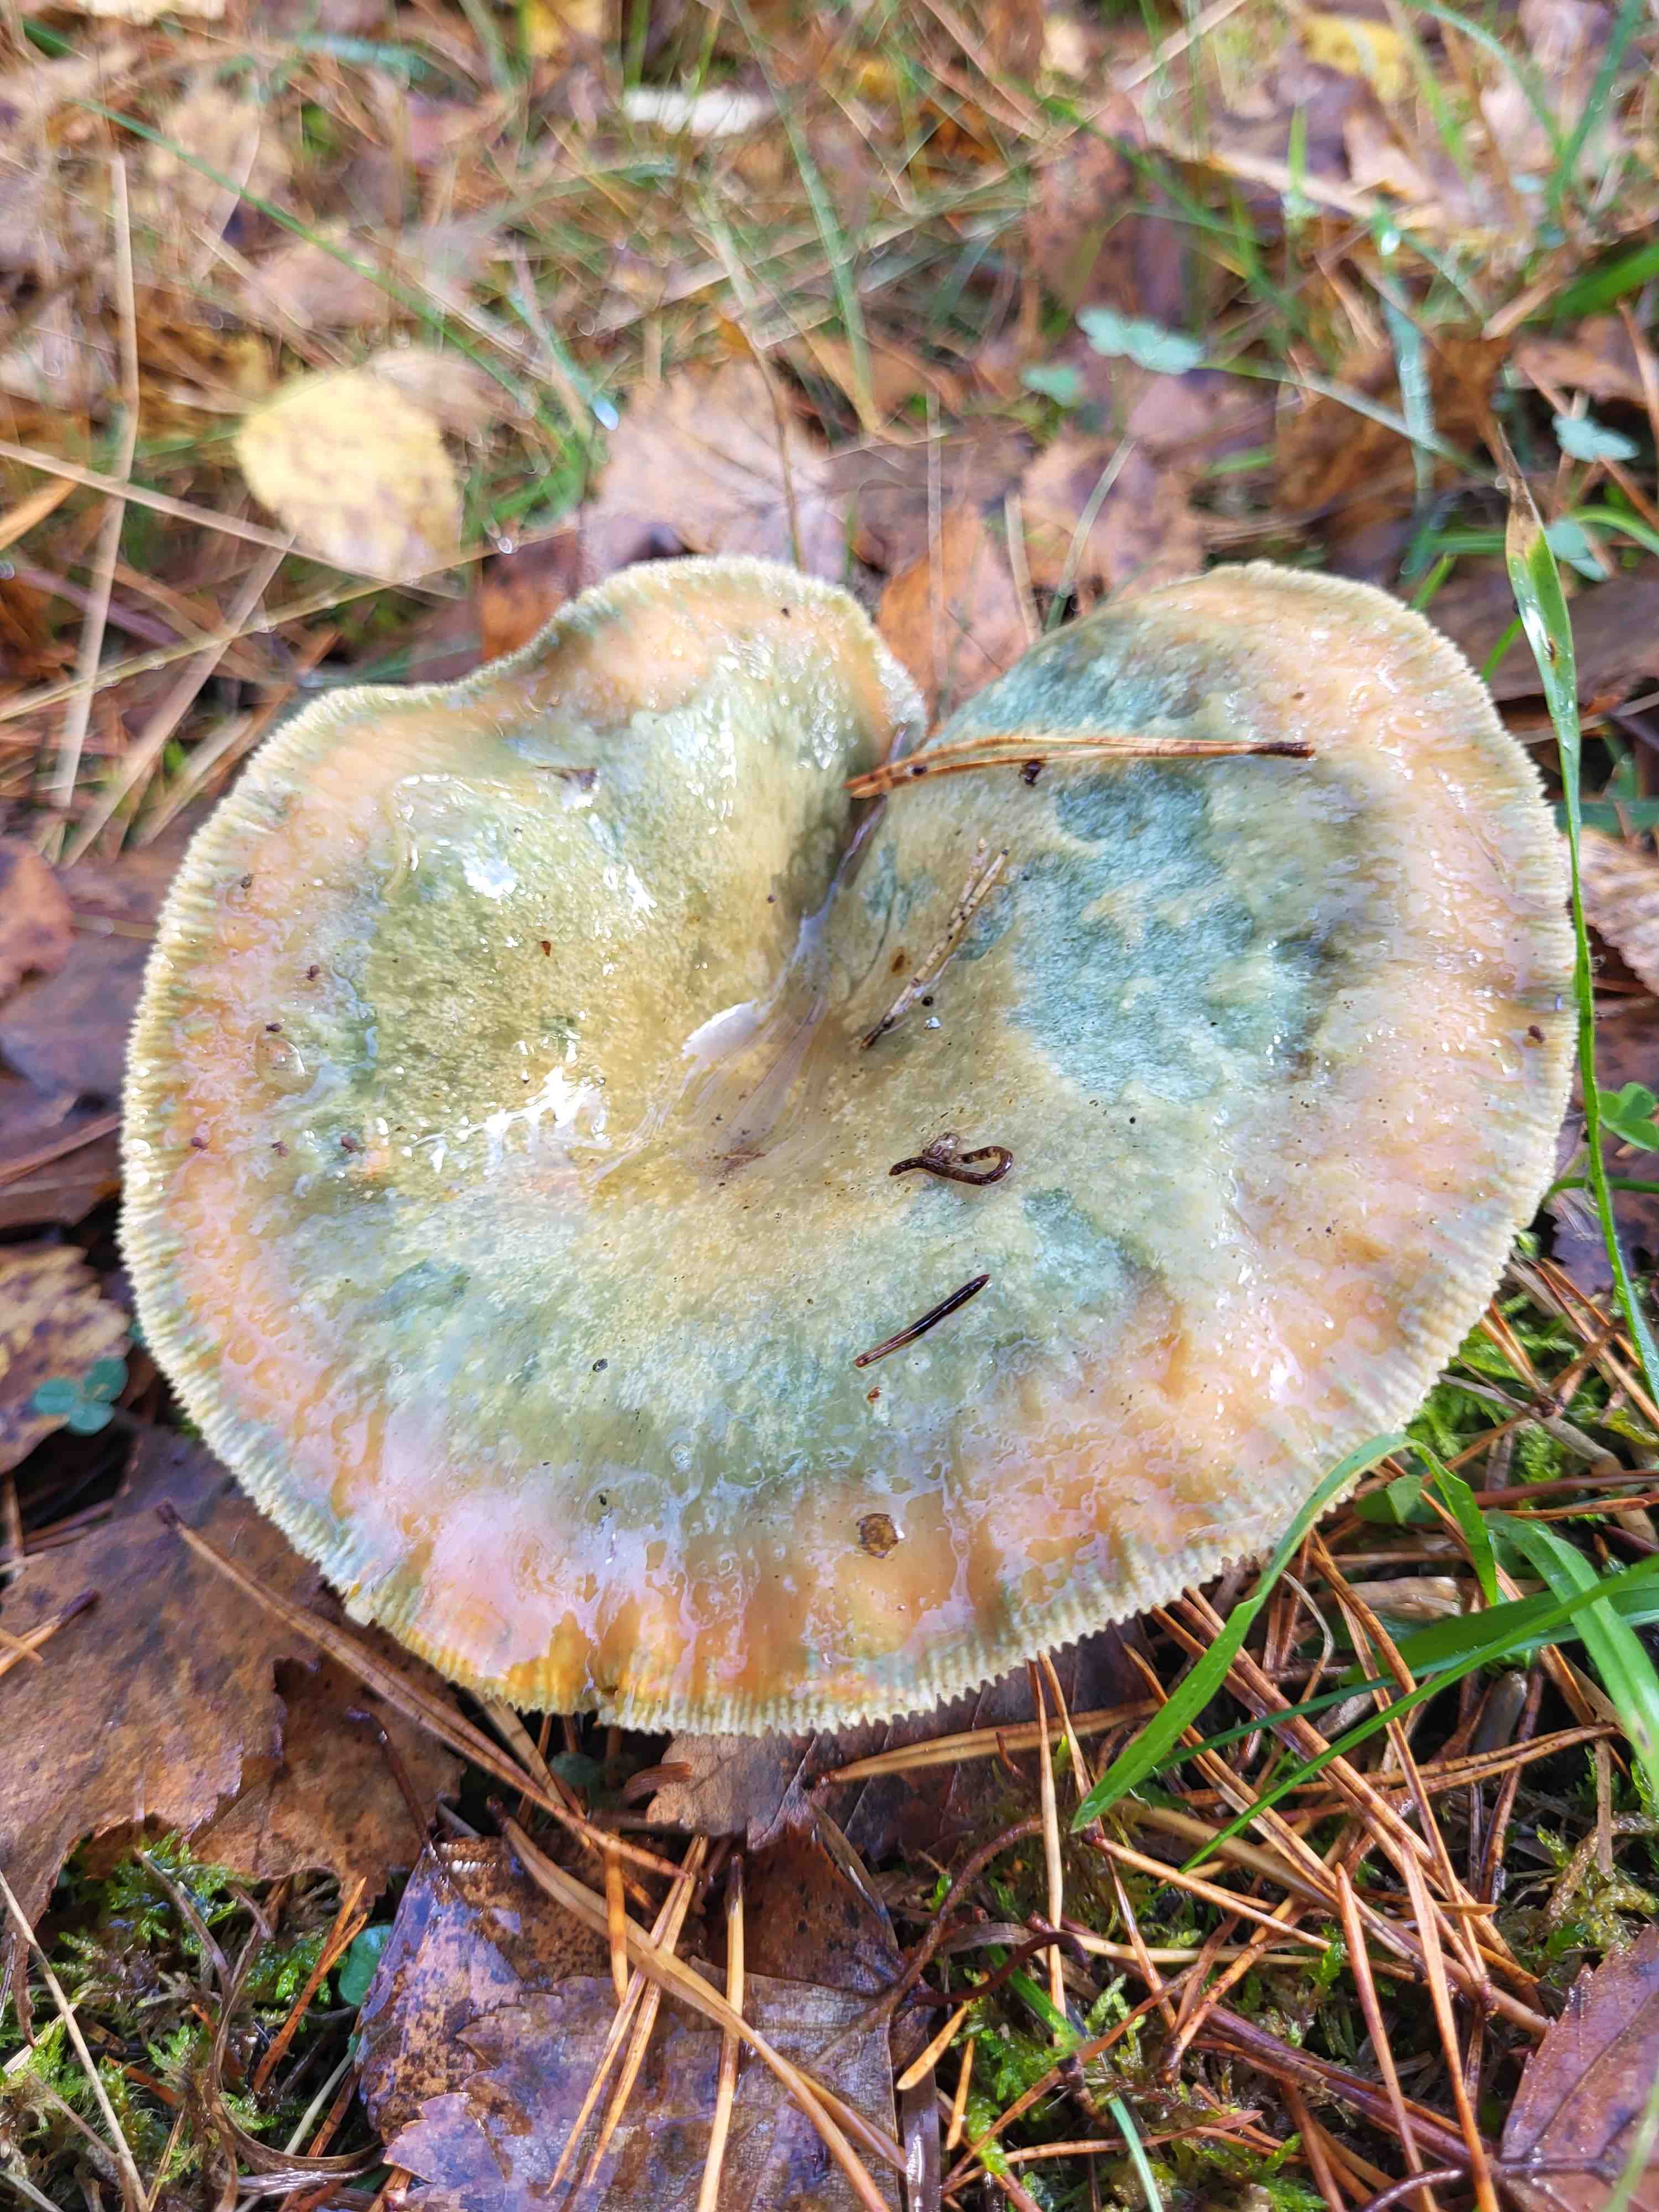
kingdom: Fungi
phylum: Basidiomycota
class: Agaricomycetes
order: Russulales
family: Russulaceae
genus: Lactarius
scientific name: Lactarius deterrimus
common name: gran-mælkehat
